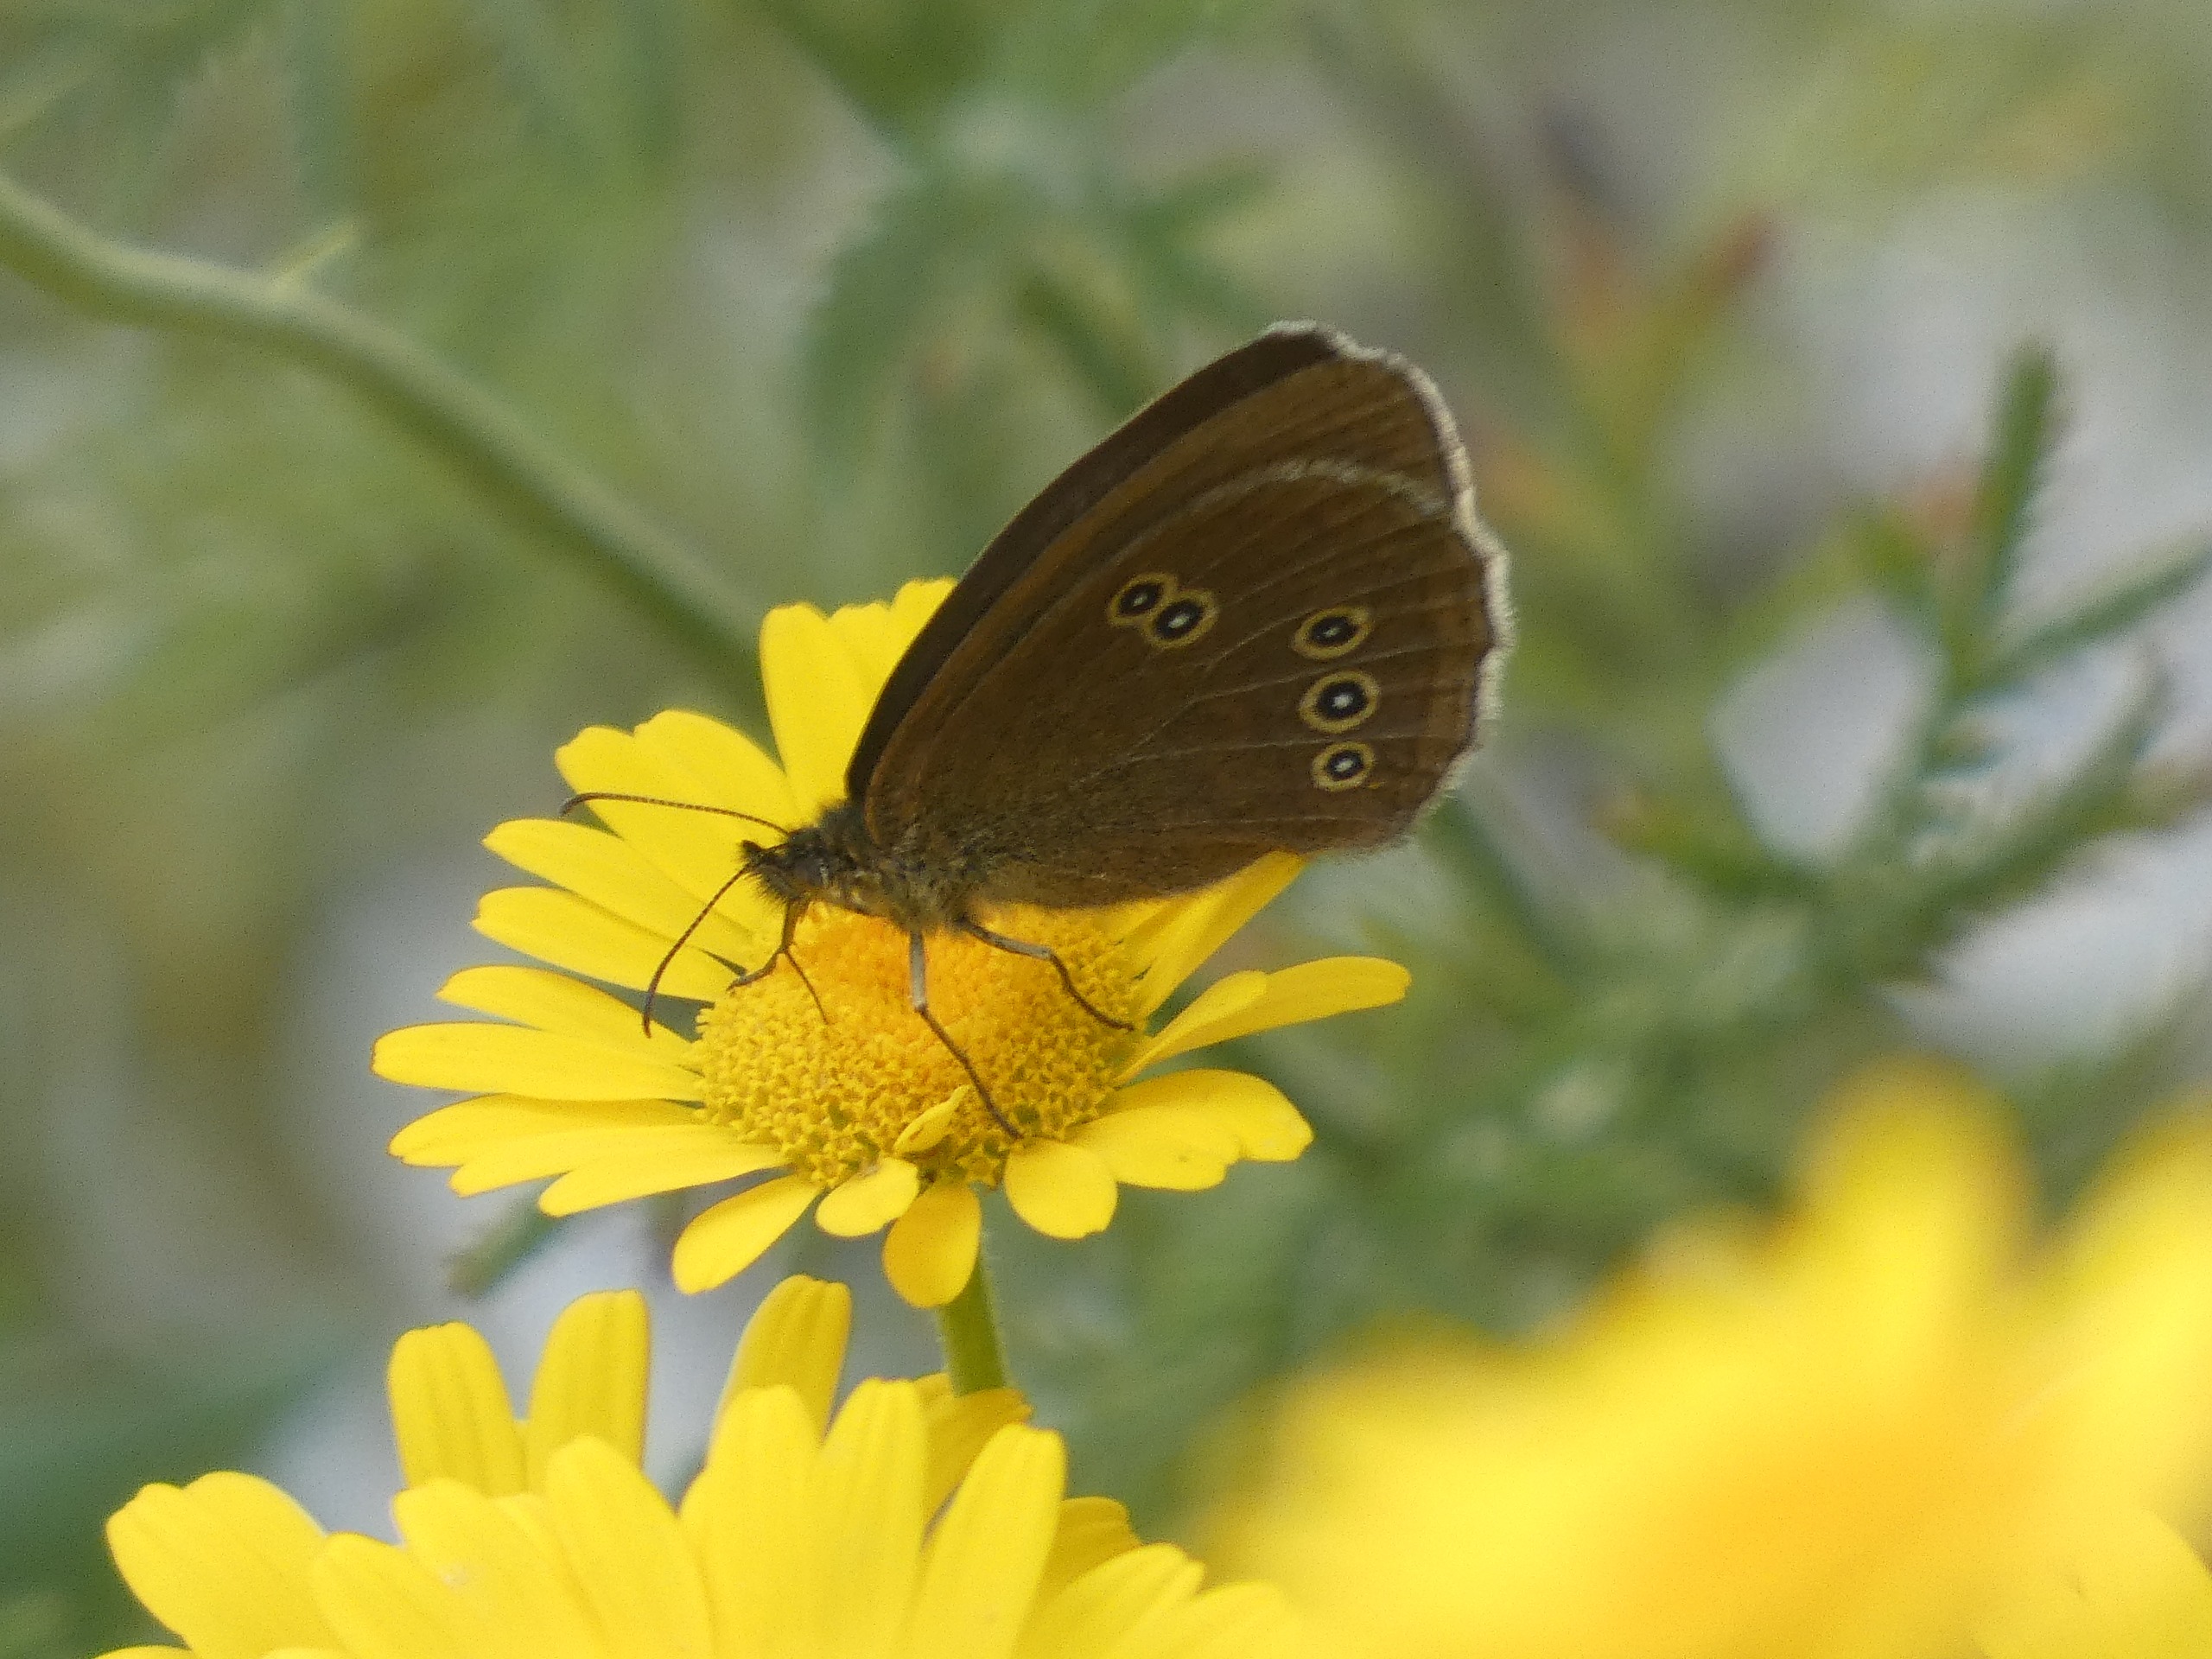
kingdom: Animalia
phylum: Arthropoda
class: Insecta
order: Lepidoptera
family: Nymphalidae
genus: Aphantopus
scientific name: Aphantopus hyperantus
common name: Engrandøje
